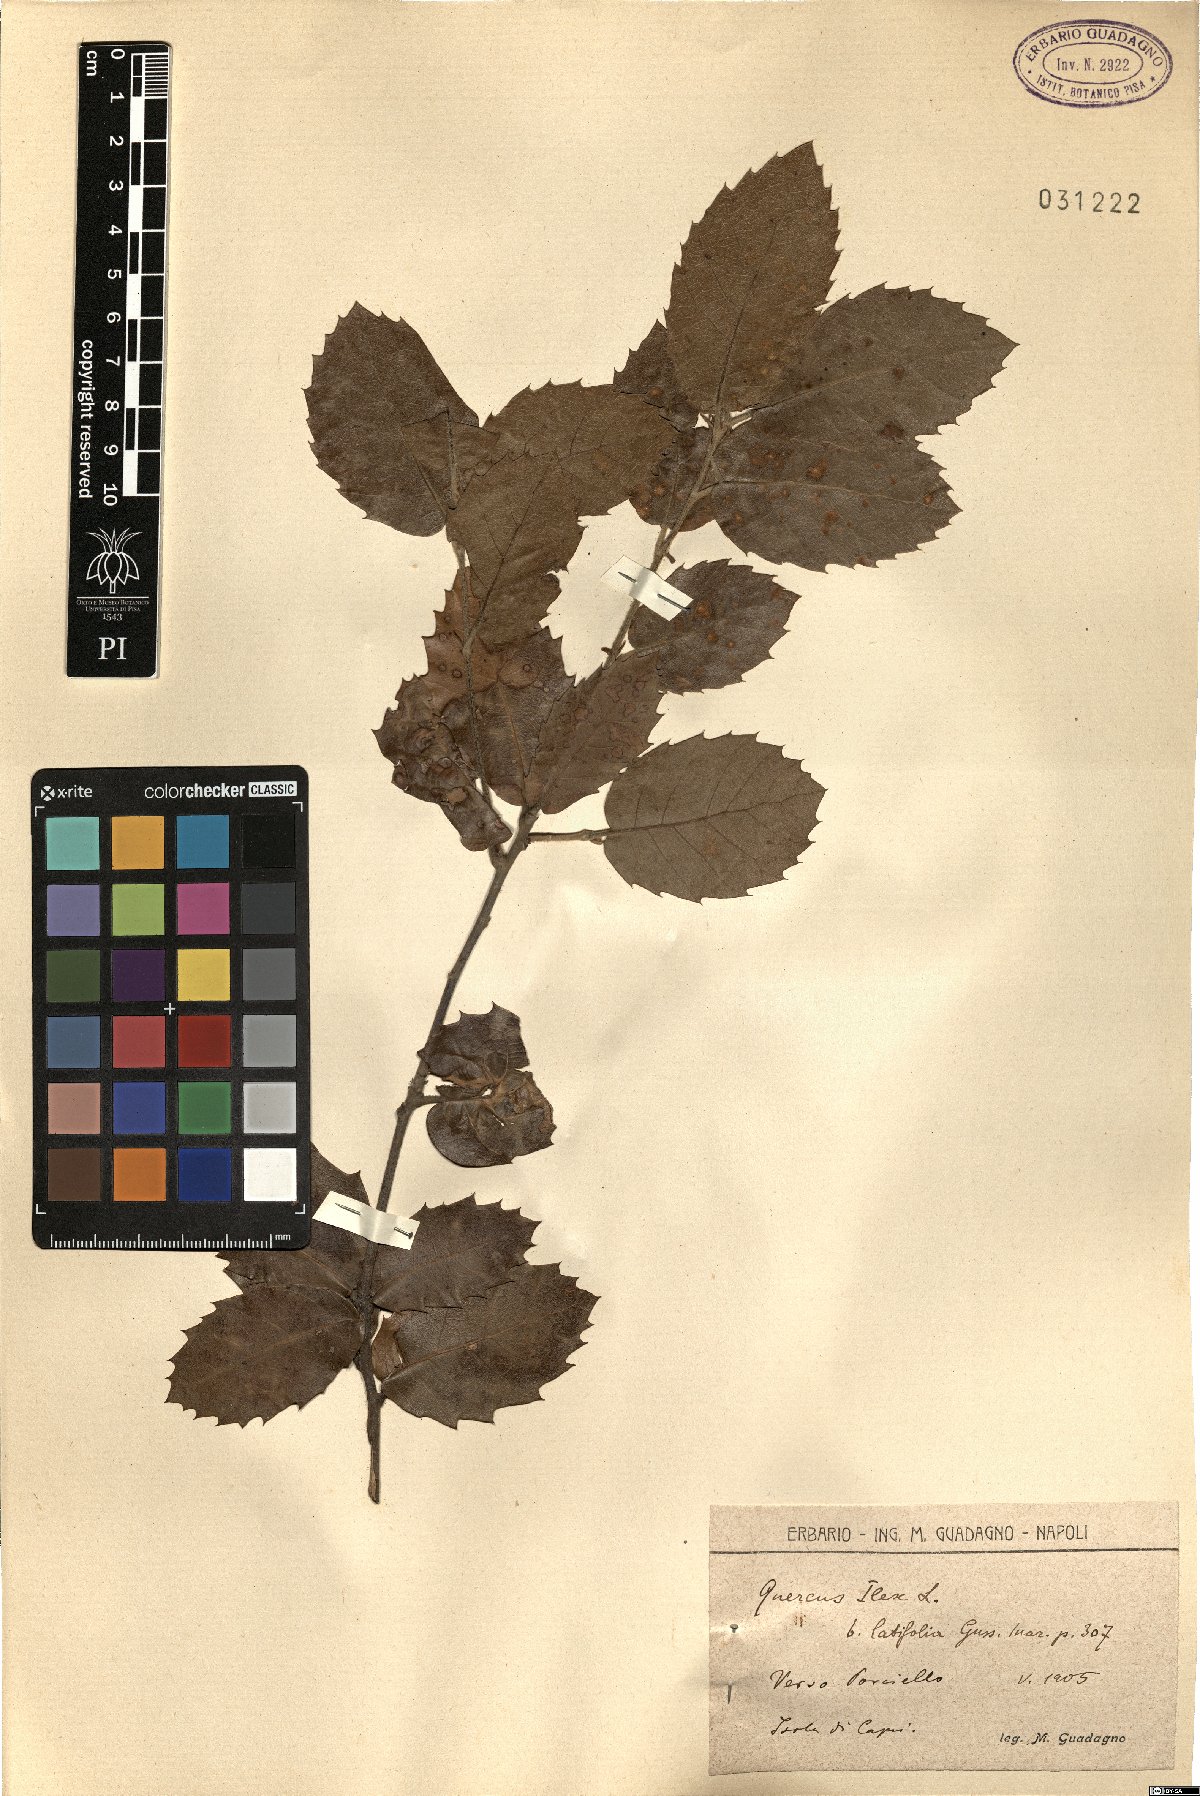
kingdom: Plantae
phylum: Tracheophyta
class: Magnoliopsida
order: Fagales
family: Fagaceae
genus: Quercus
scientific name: Quercus ilex
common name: Evergreen oak
